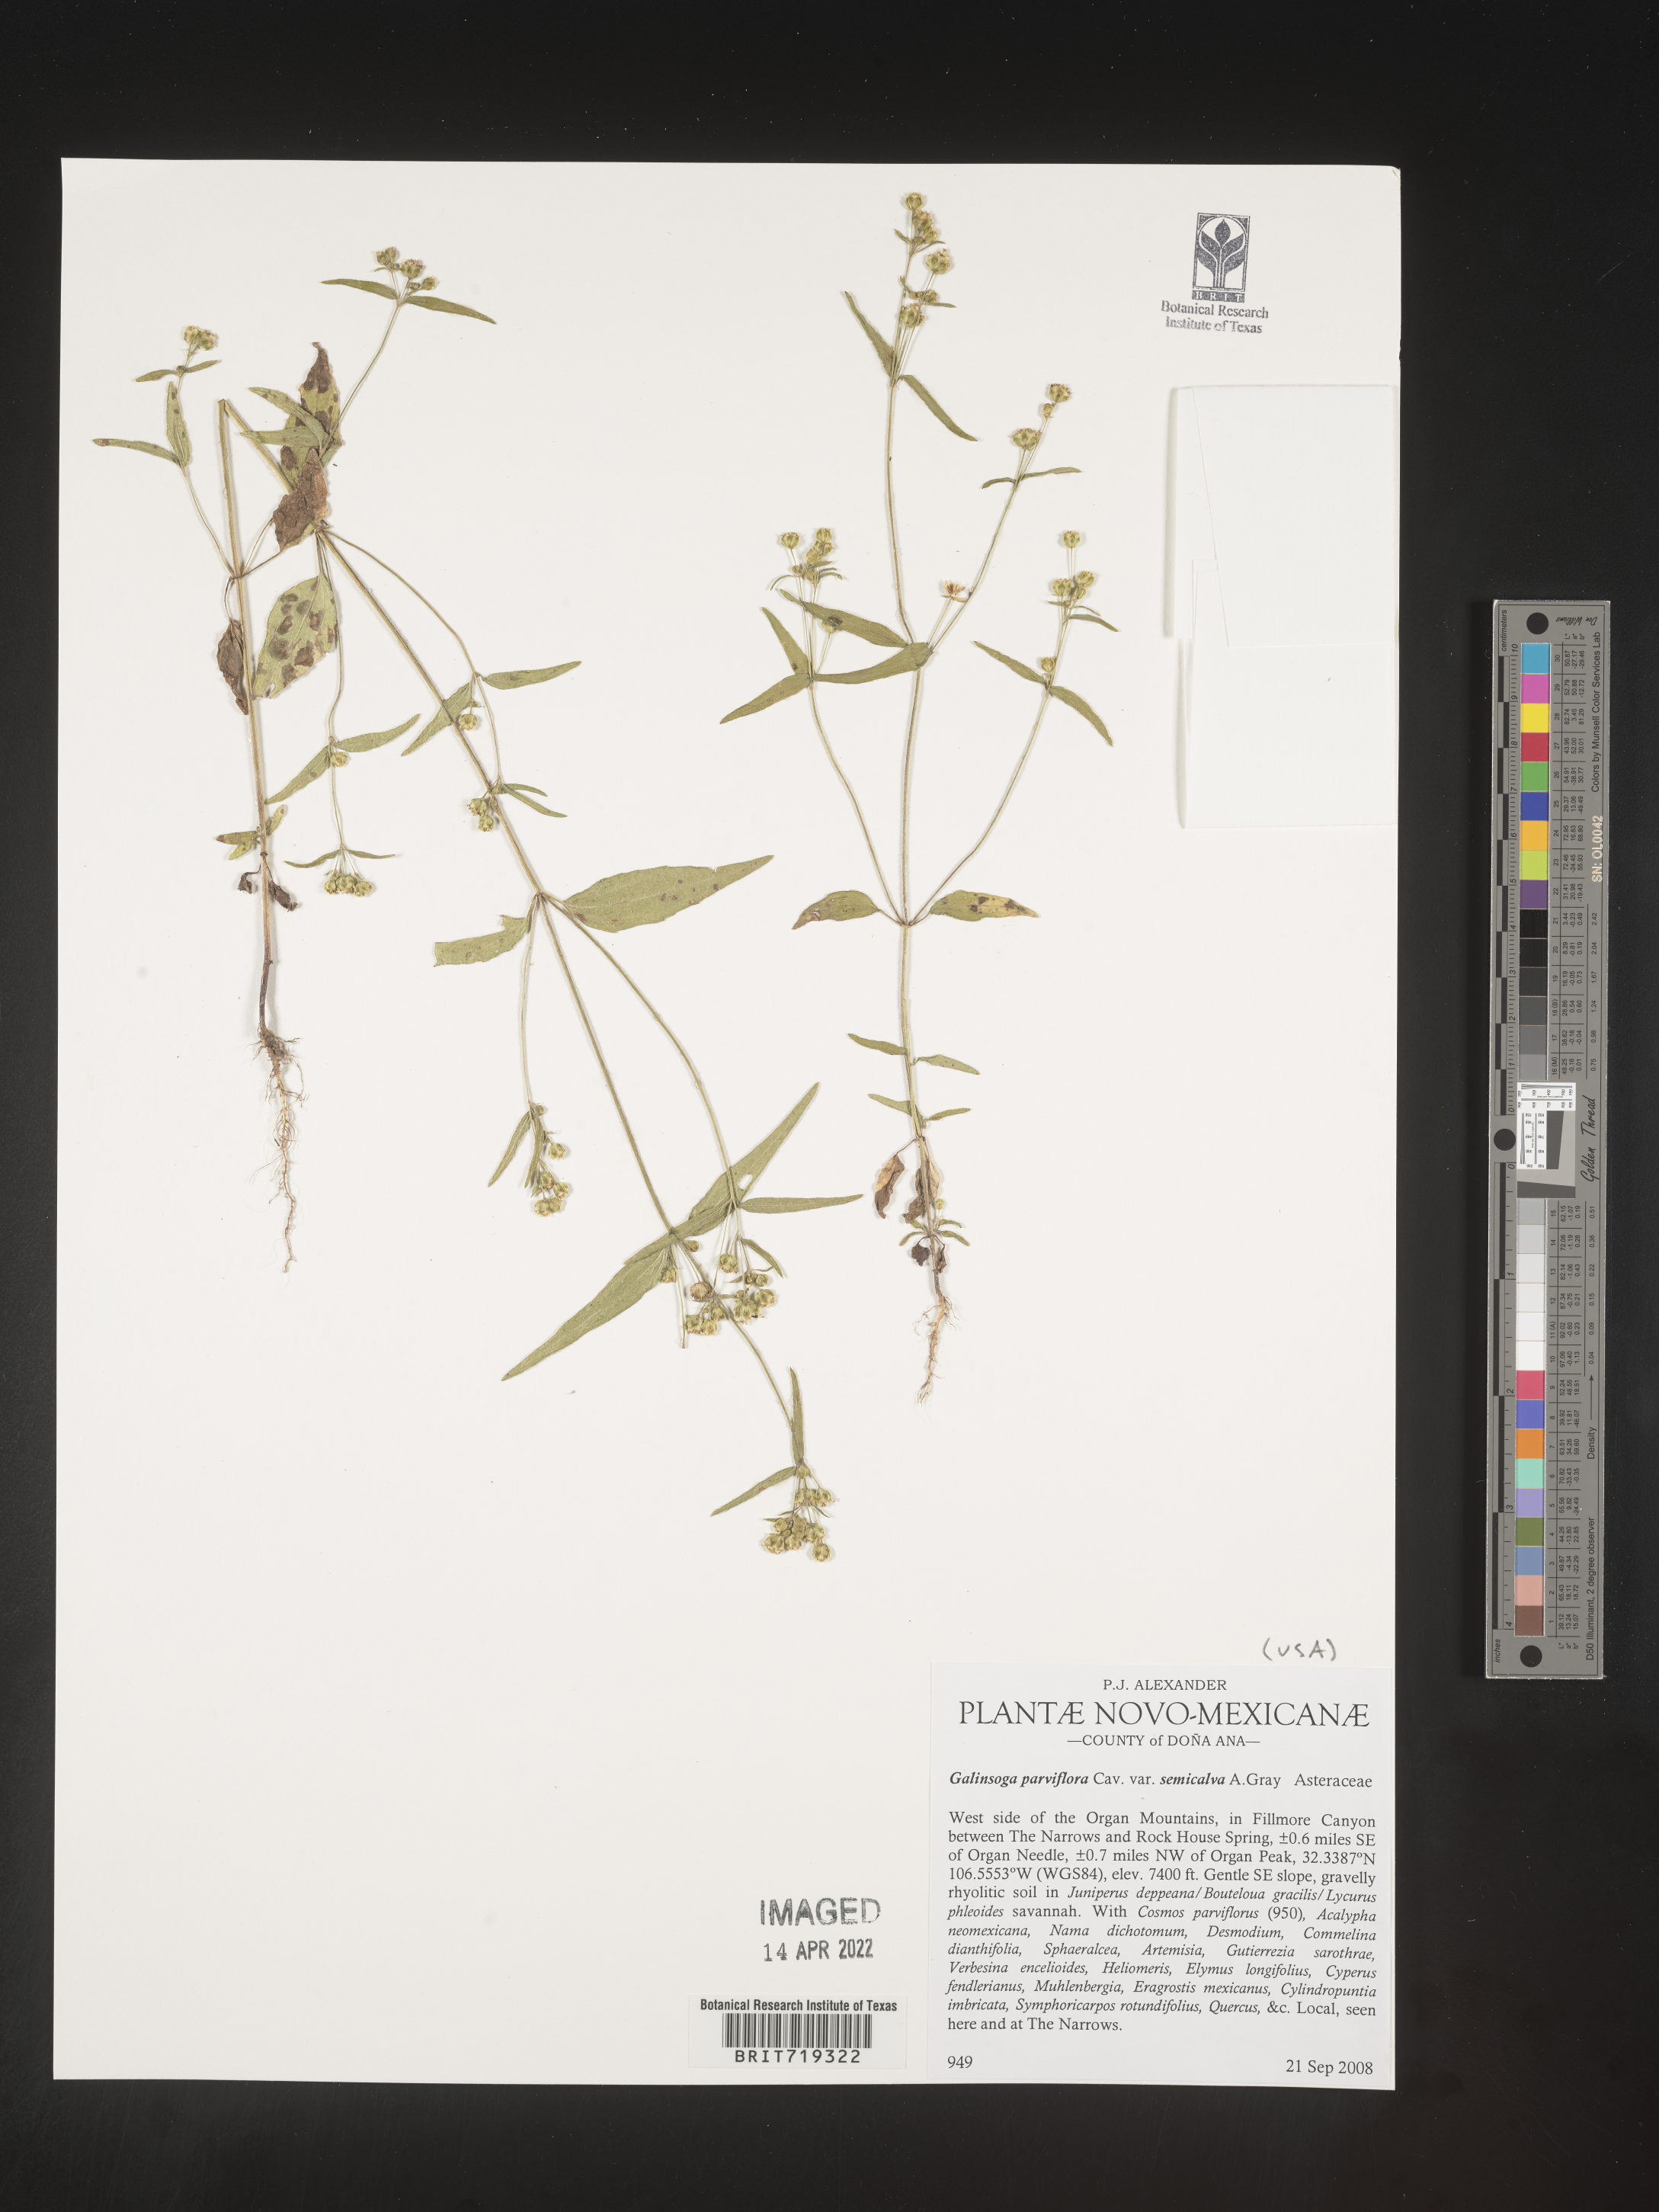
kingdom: Plantae
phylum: Tracheophyta
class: Magnoliopsida
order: Asterales
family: Asteraceae
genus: Galinsoga
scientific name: Galinsoga parviflora
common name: Gallant soldier
